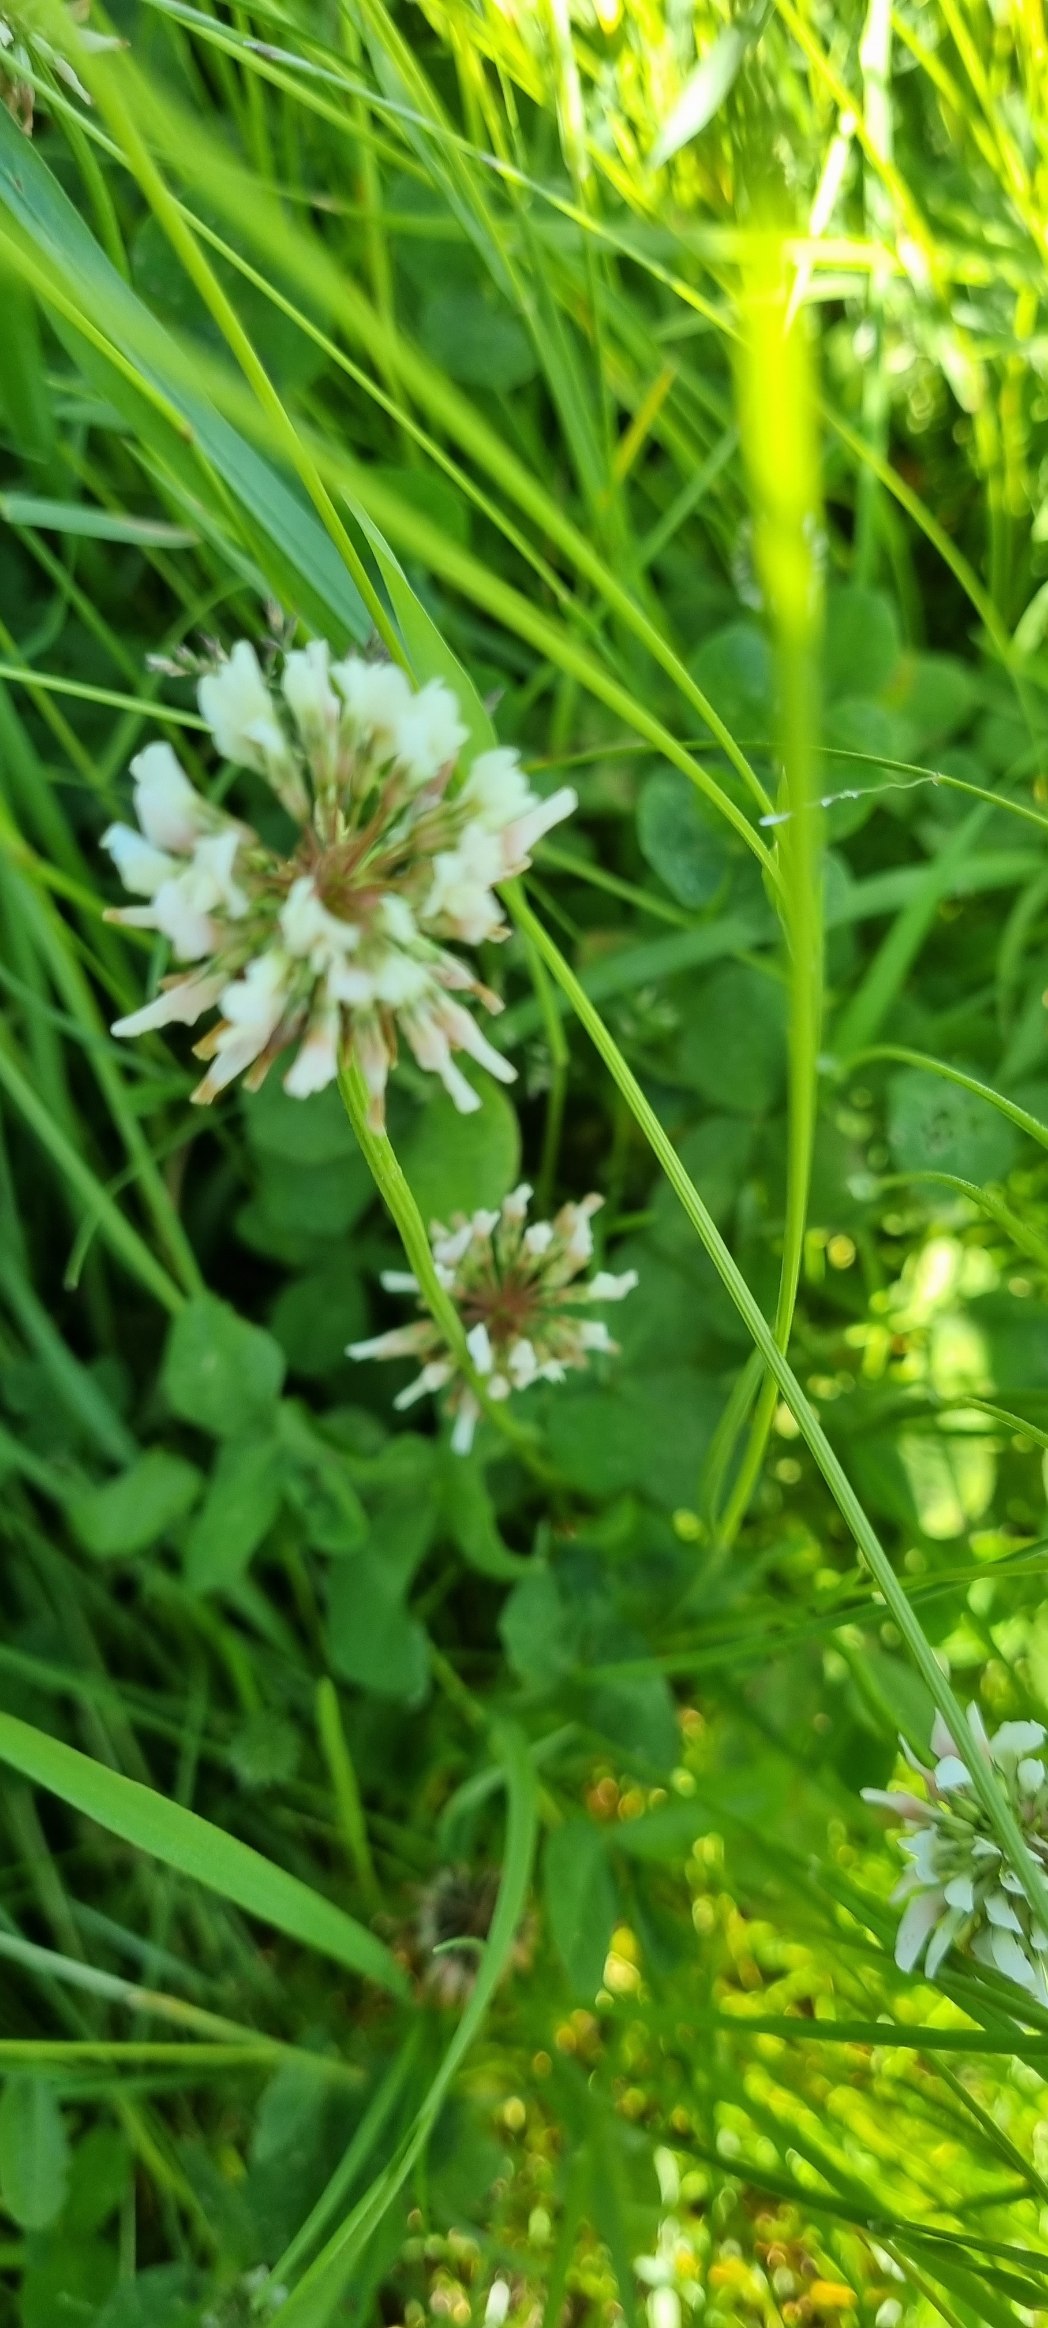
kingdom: Plantae
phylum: Tracheophyta
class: Magnoliopsida
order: Fabales
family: Fabaceae
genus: Trifolium
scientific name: Trifolium repens
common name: Hvid-kløver
